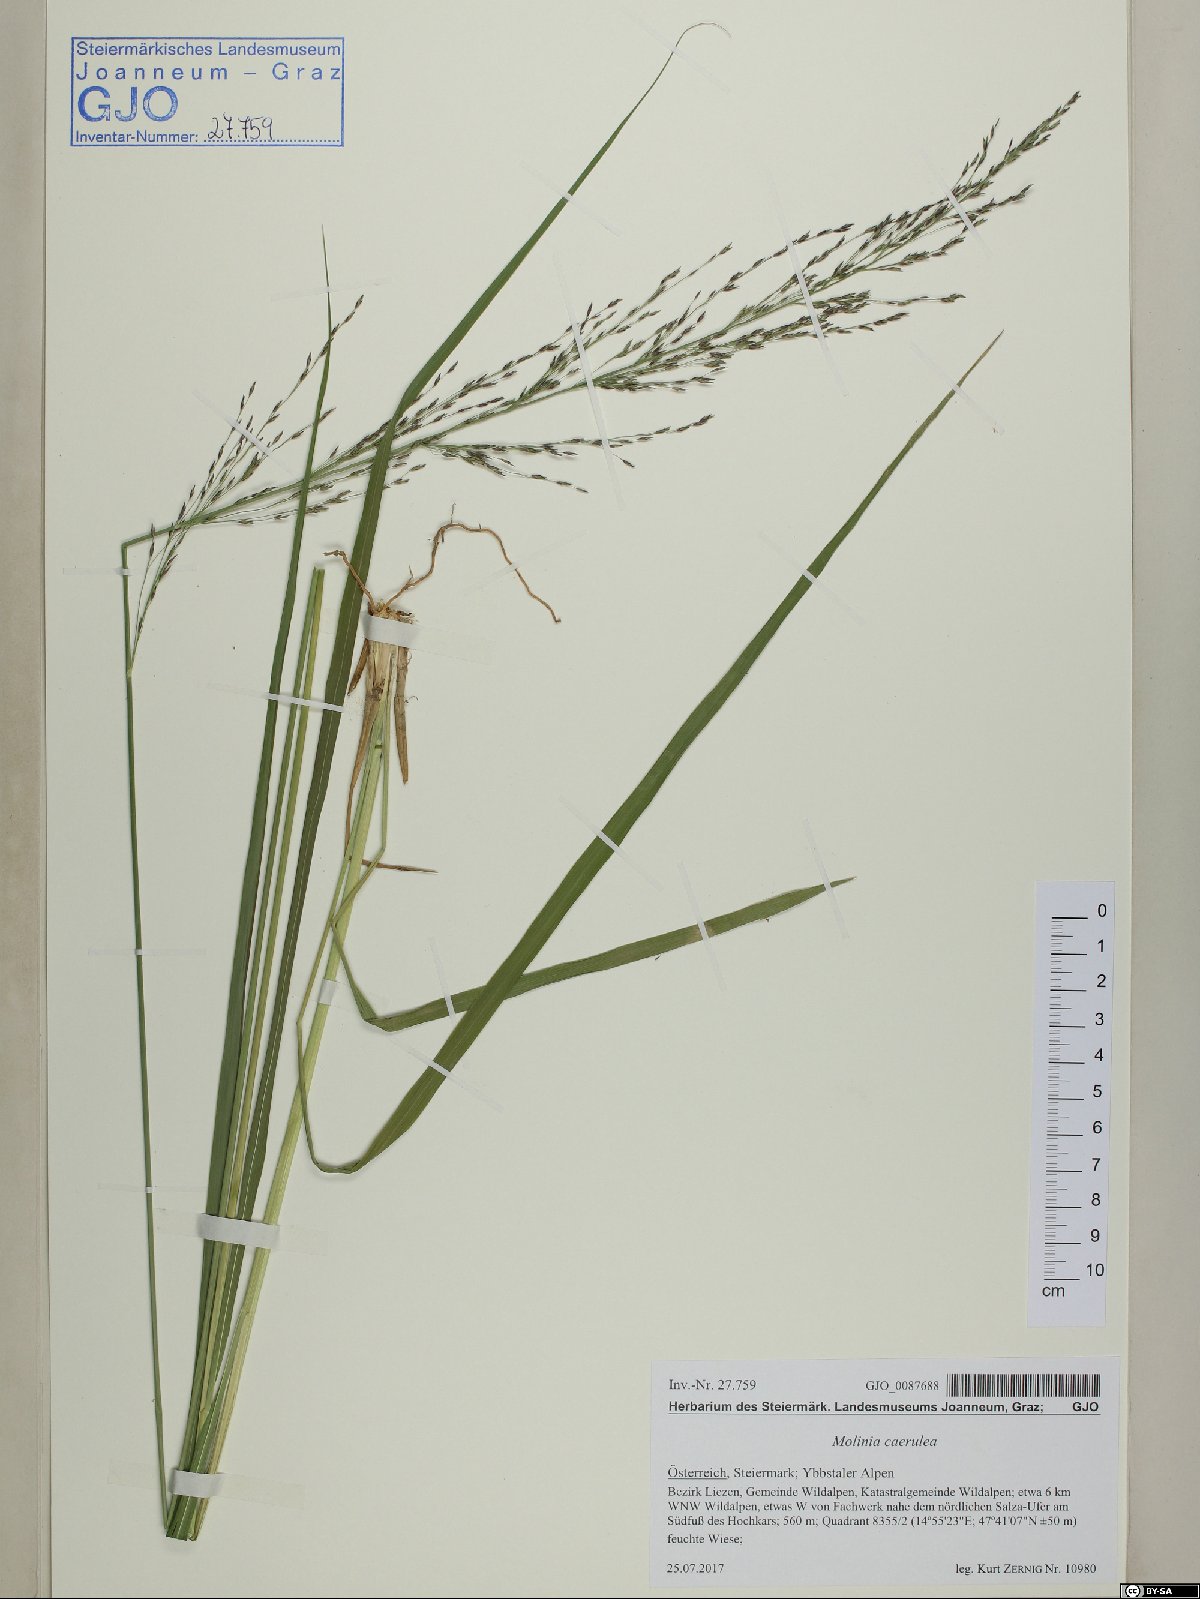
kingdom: Plantae
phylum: Tracheophyta
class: Liliopsida
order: Poales
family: Poaceae
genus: Molinia
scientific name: Molinia caerulea
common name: Purple moor-grass
